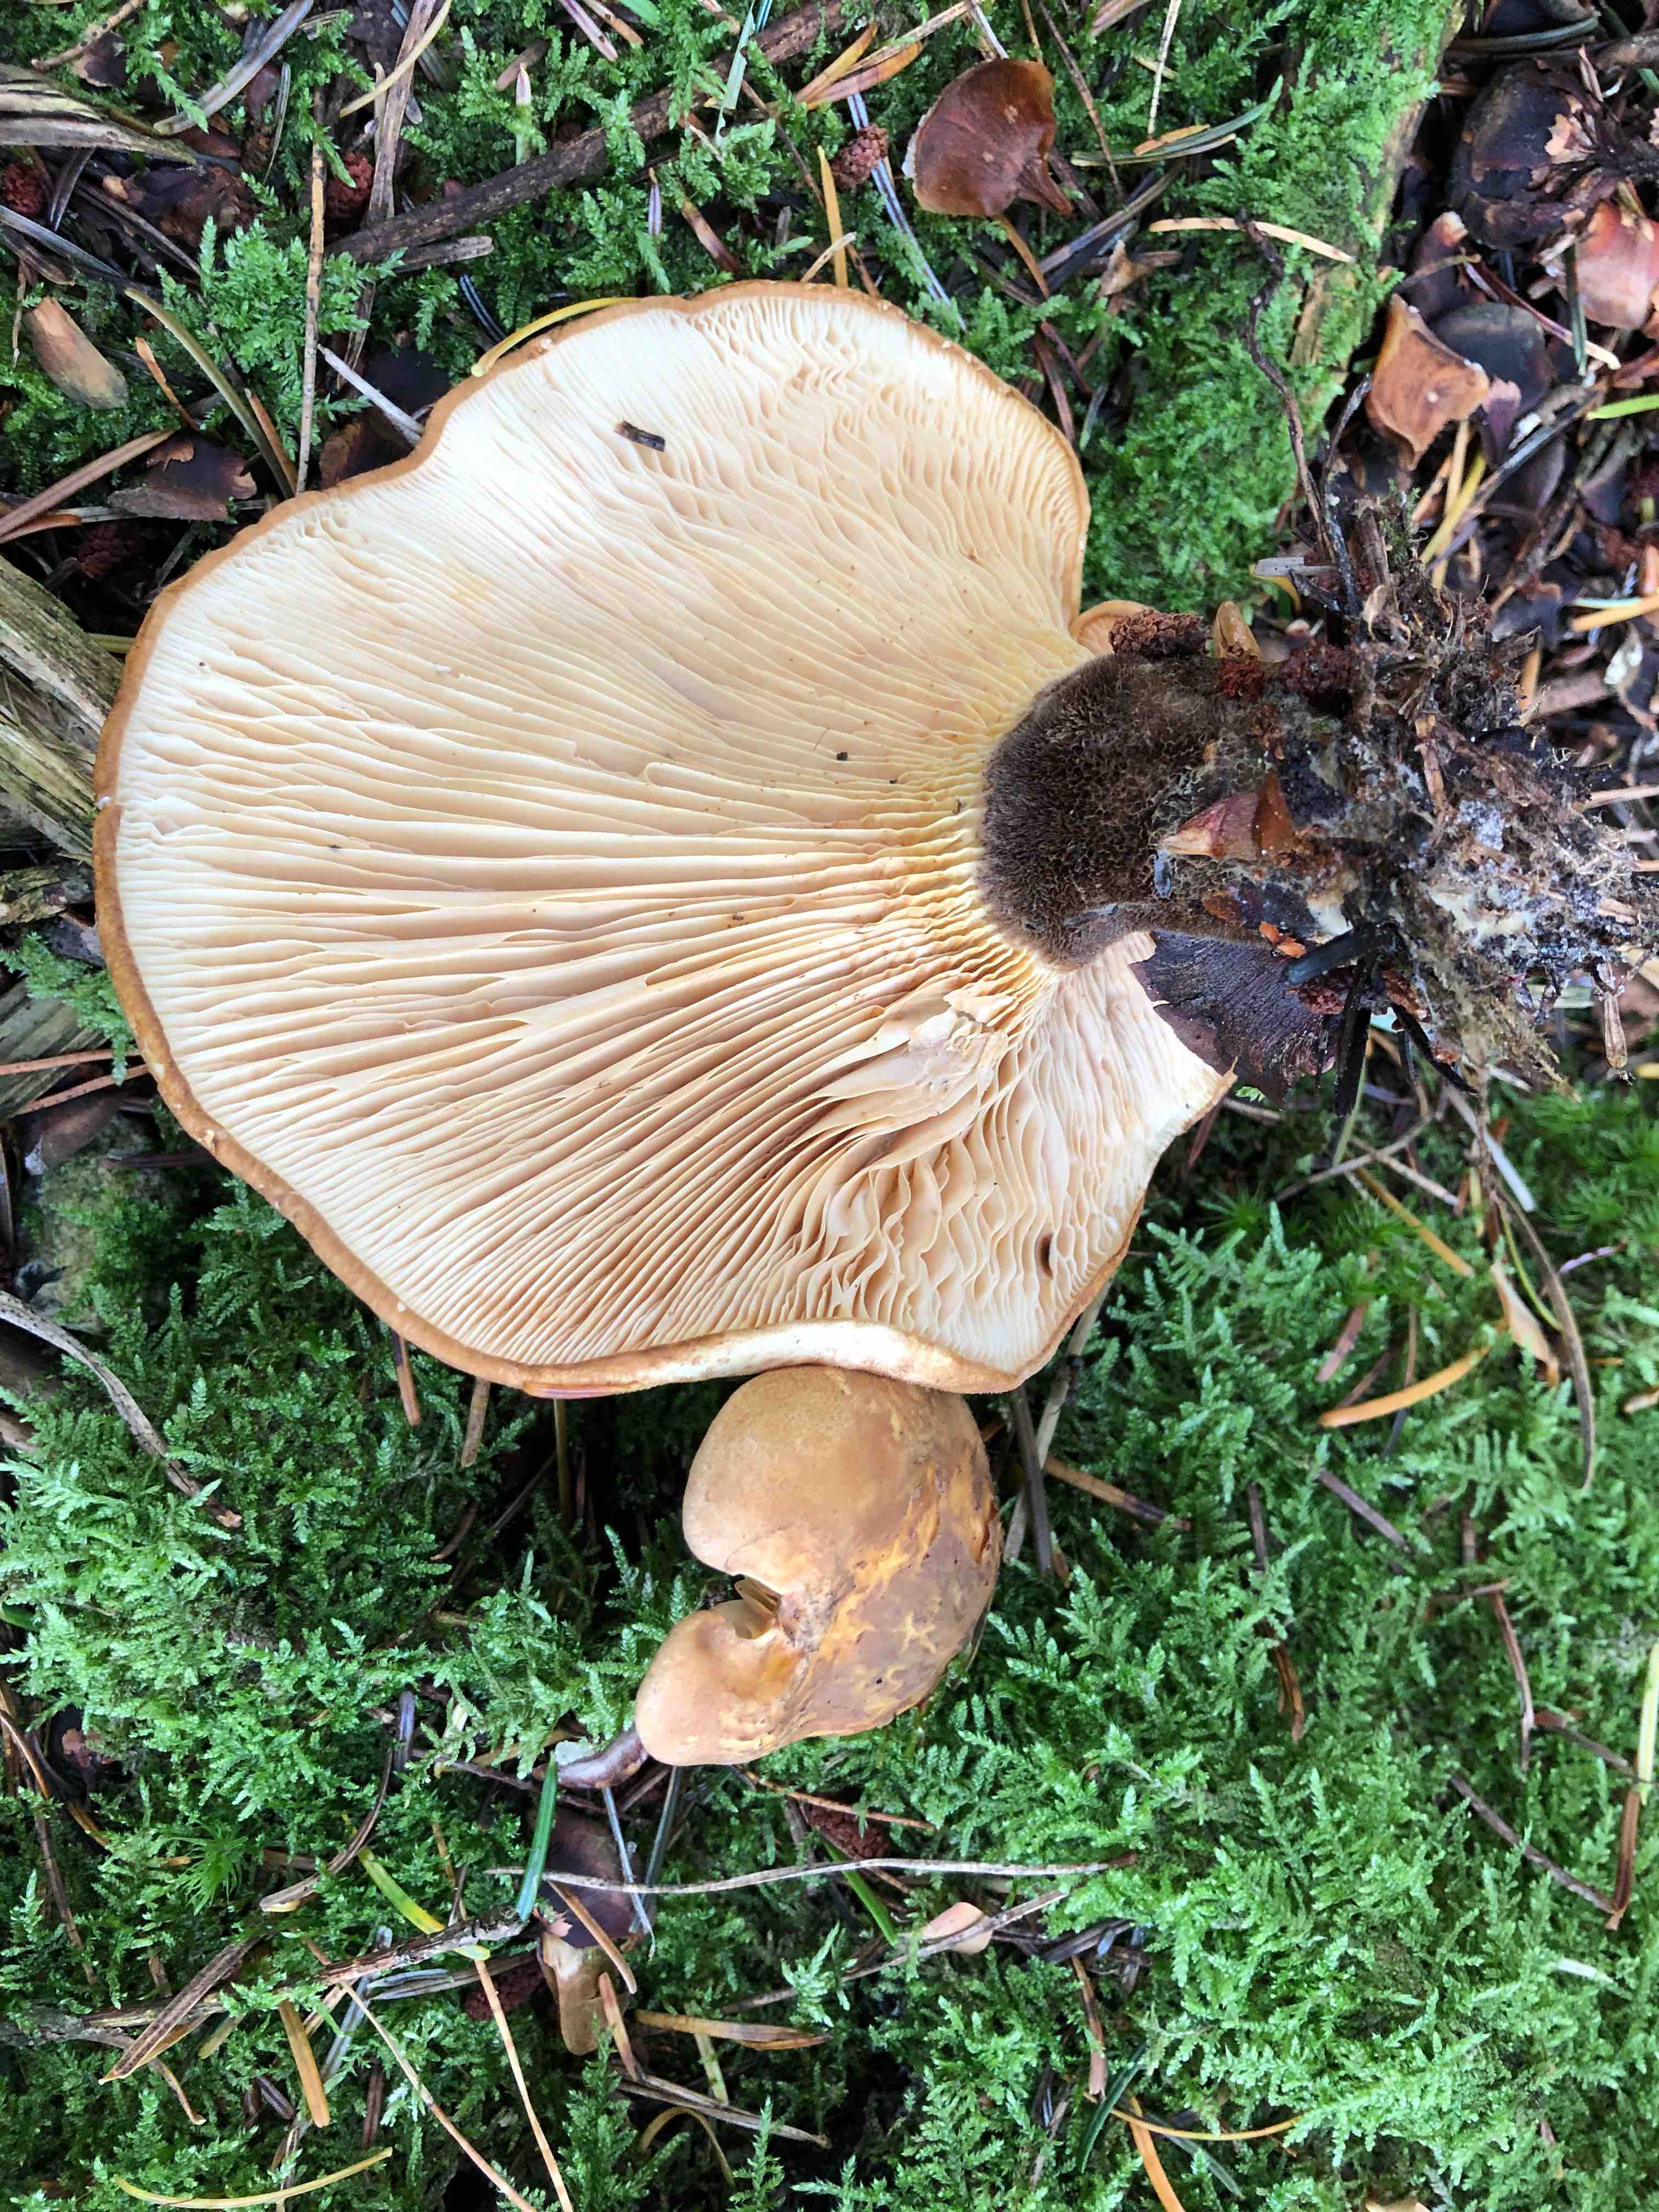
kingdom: Fungi
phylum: Basidiomycota
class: Agaricomycetes
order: Boletales
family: Tapinellaceae
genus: Tapinella
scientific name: Tapinella atrotomentosa
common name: sortfiltet viftesvamp
